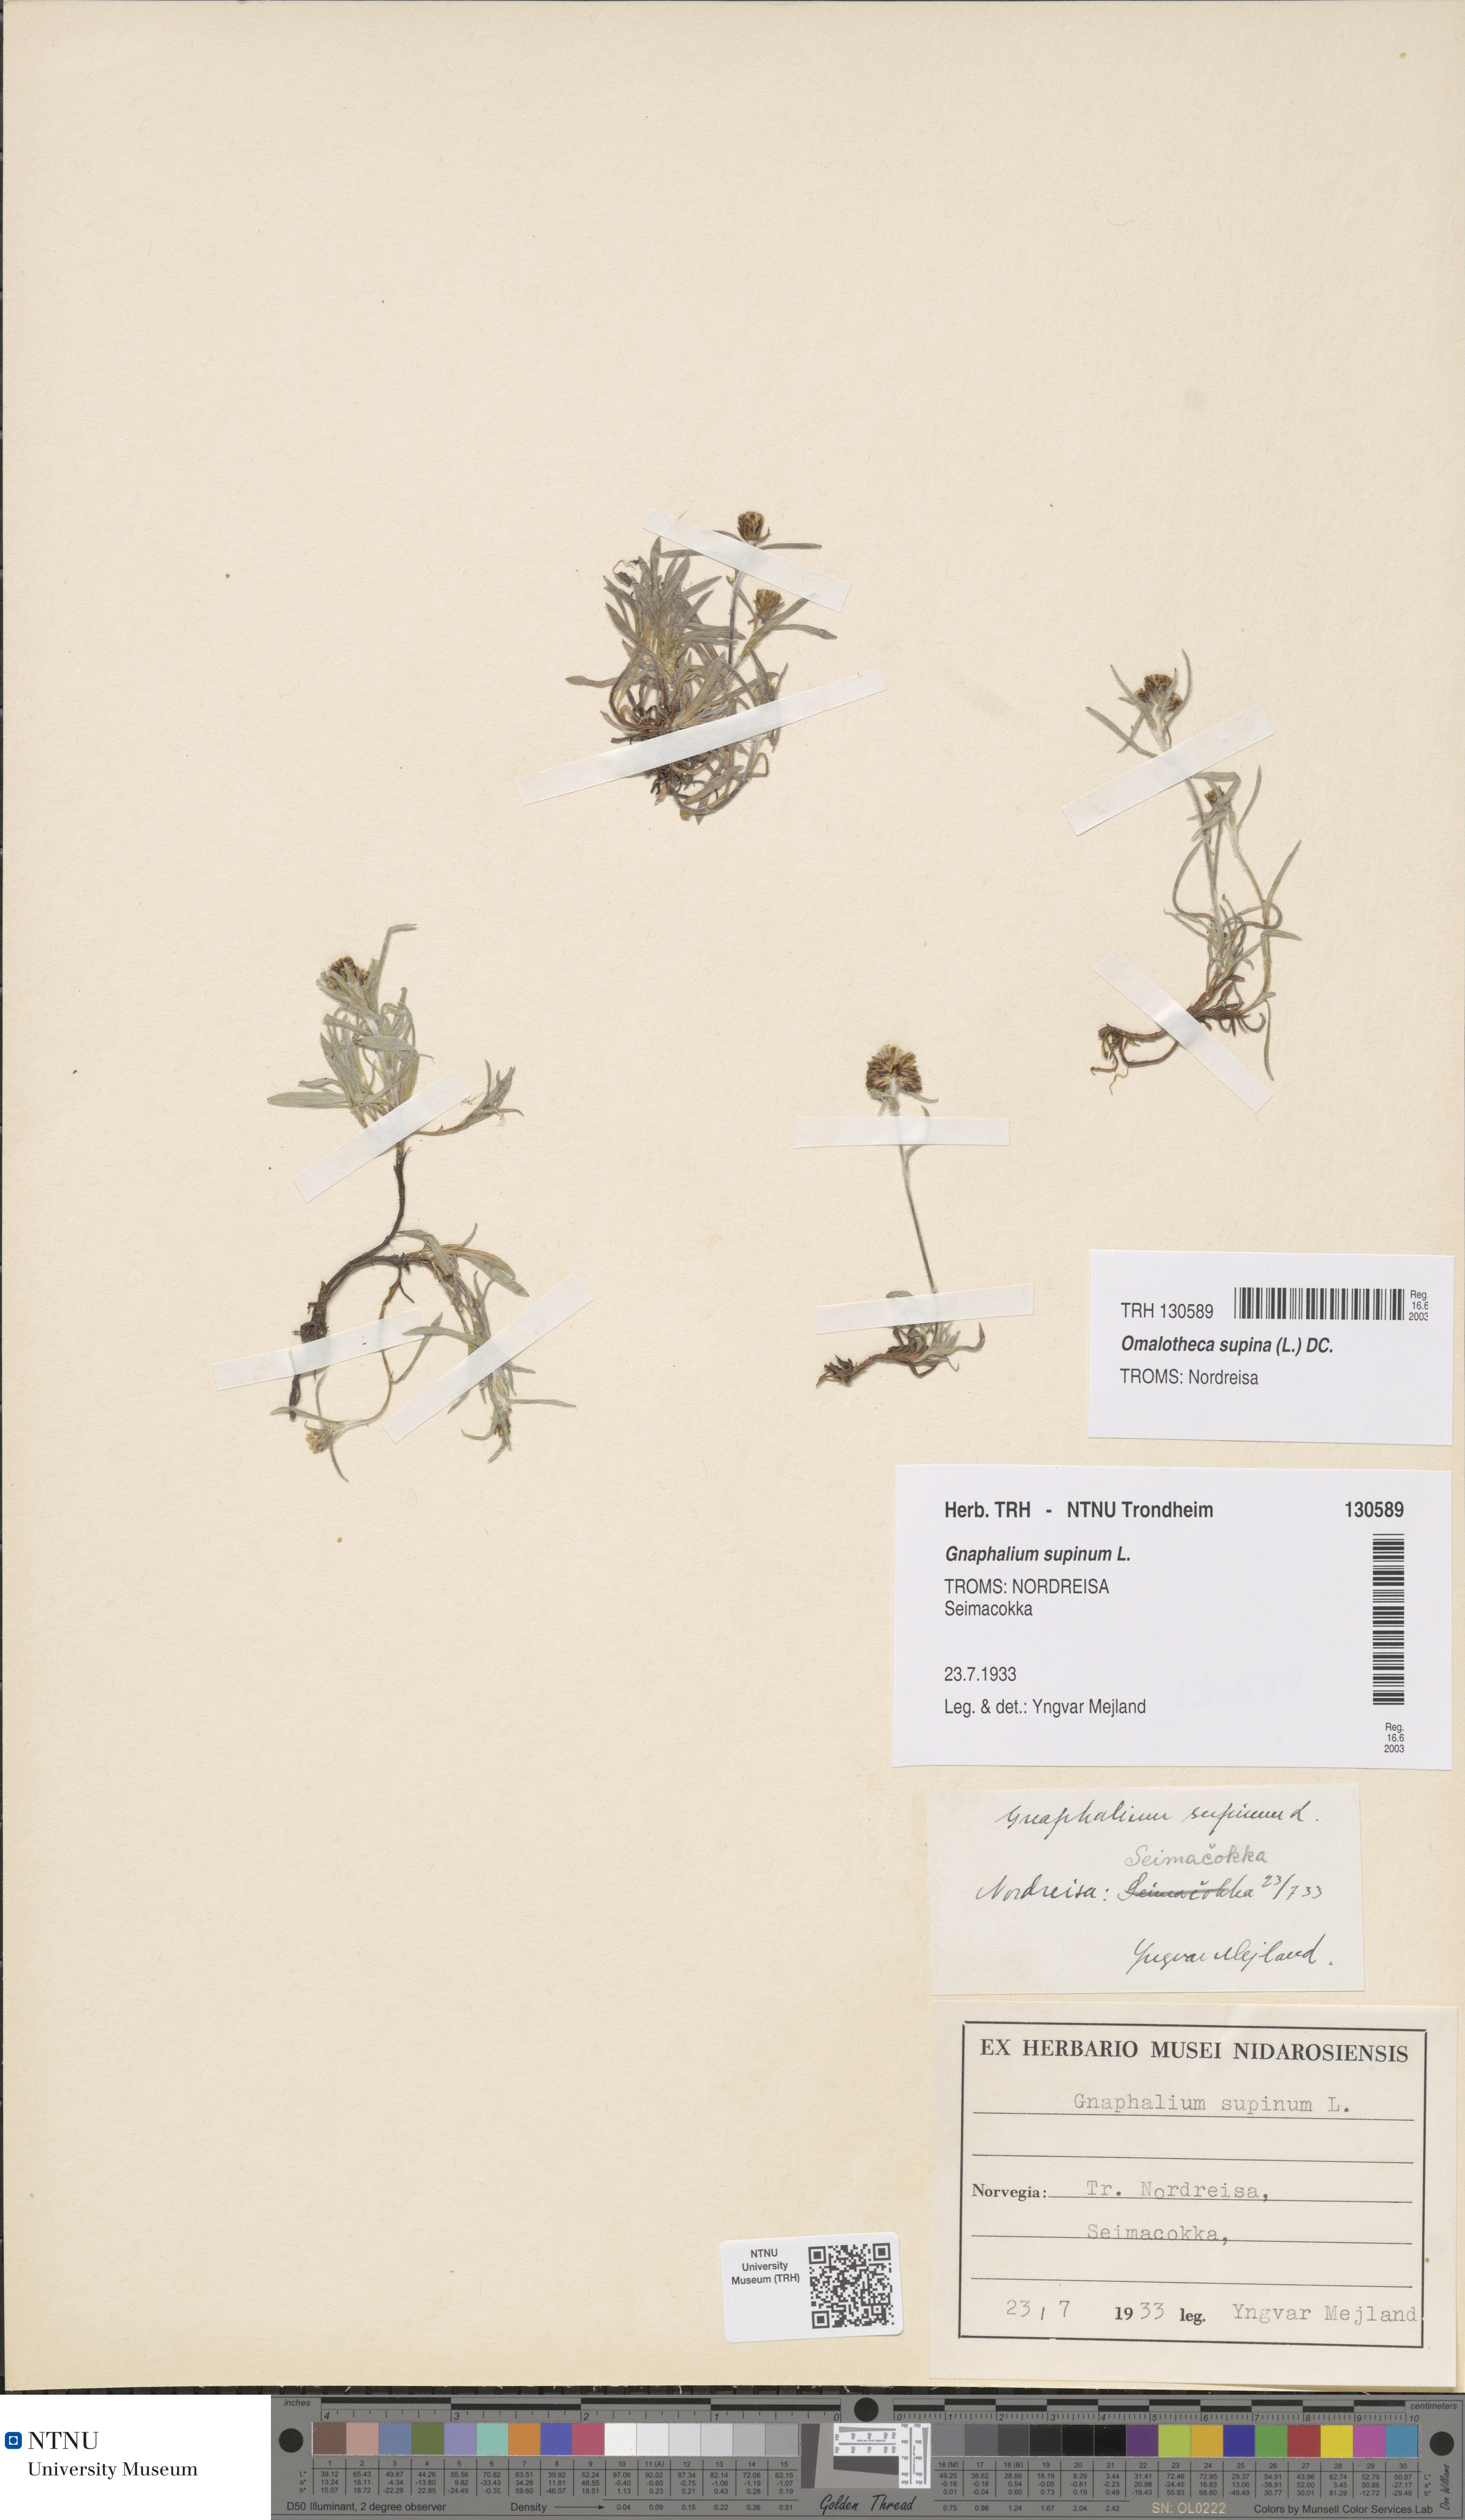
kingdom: Plantae
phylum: Tracheophyta
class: Magnoliopsida
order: Asterales
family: Asteraceae
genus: Omalotheca
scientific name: Omalotheca supina
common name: Alpine arctic-cudweed
